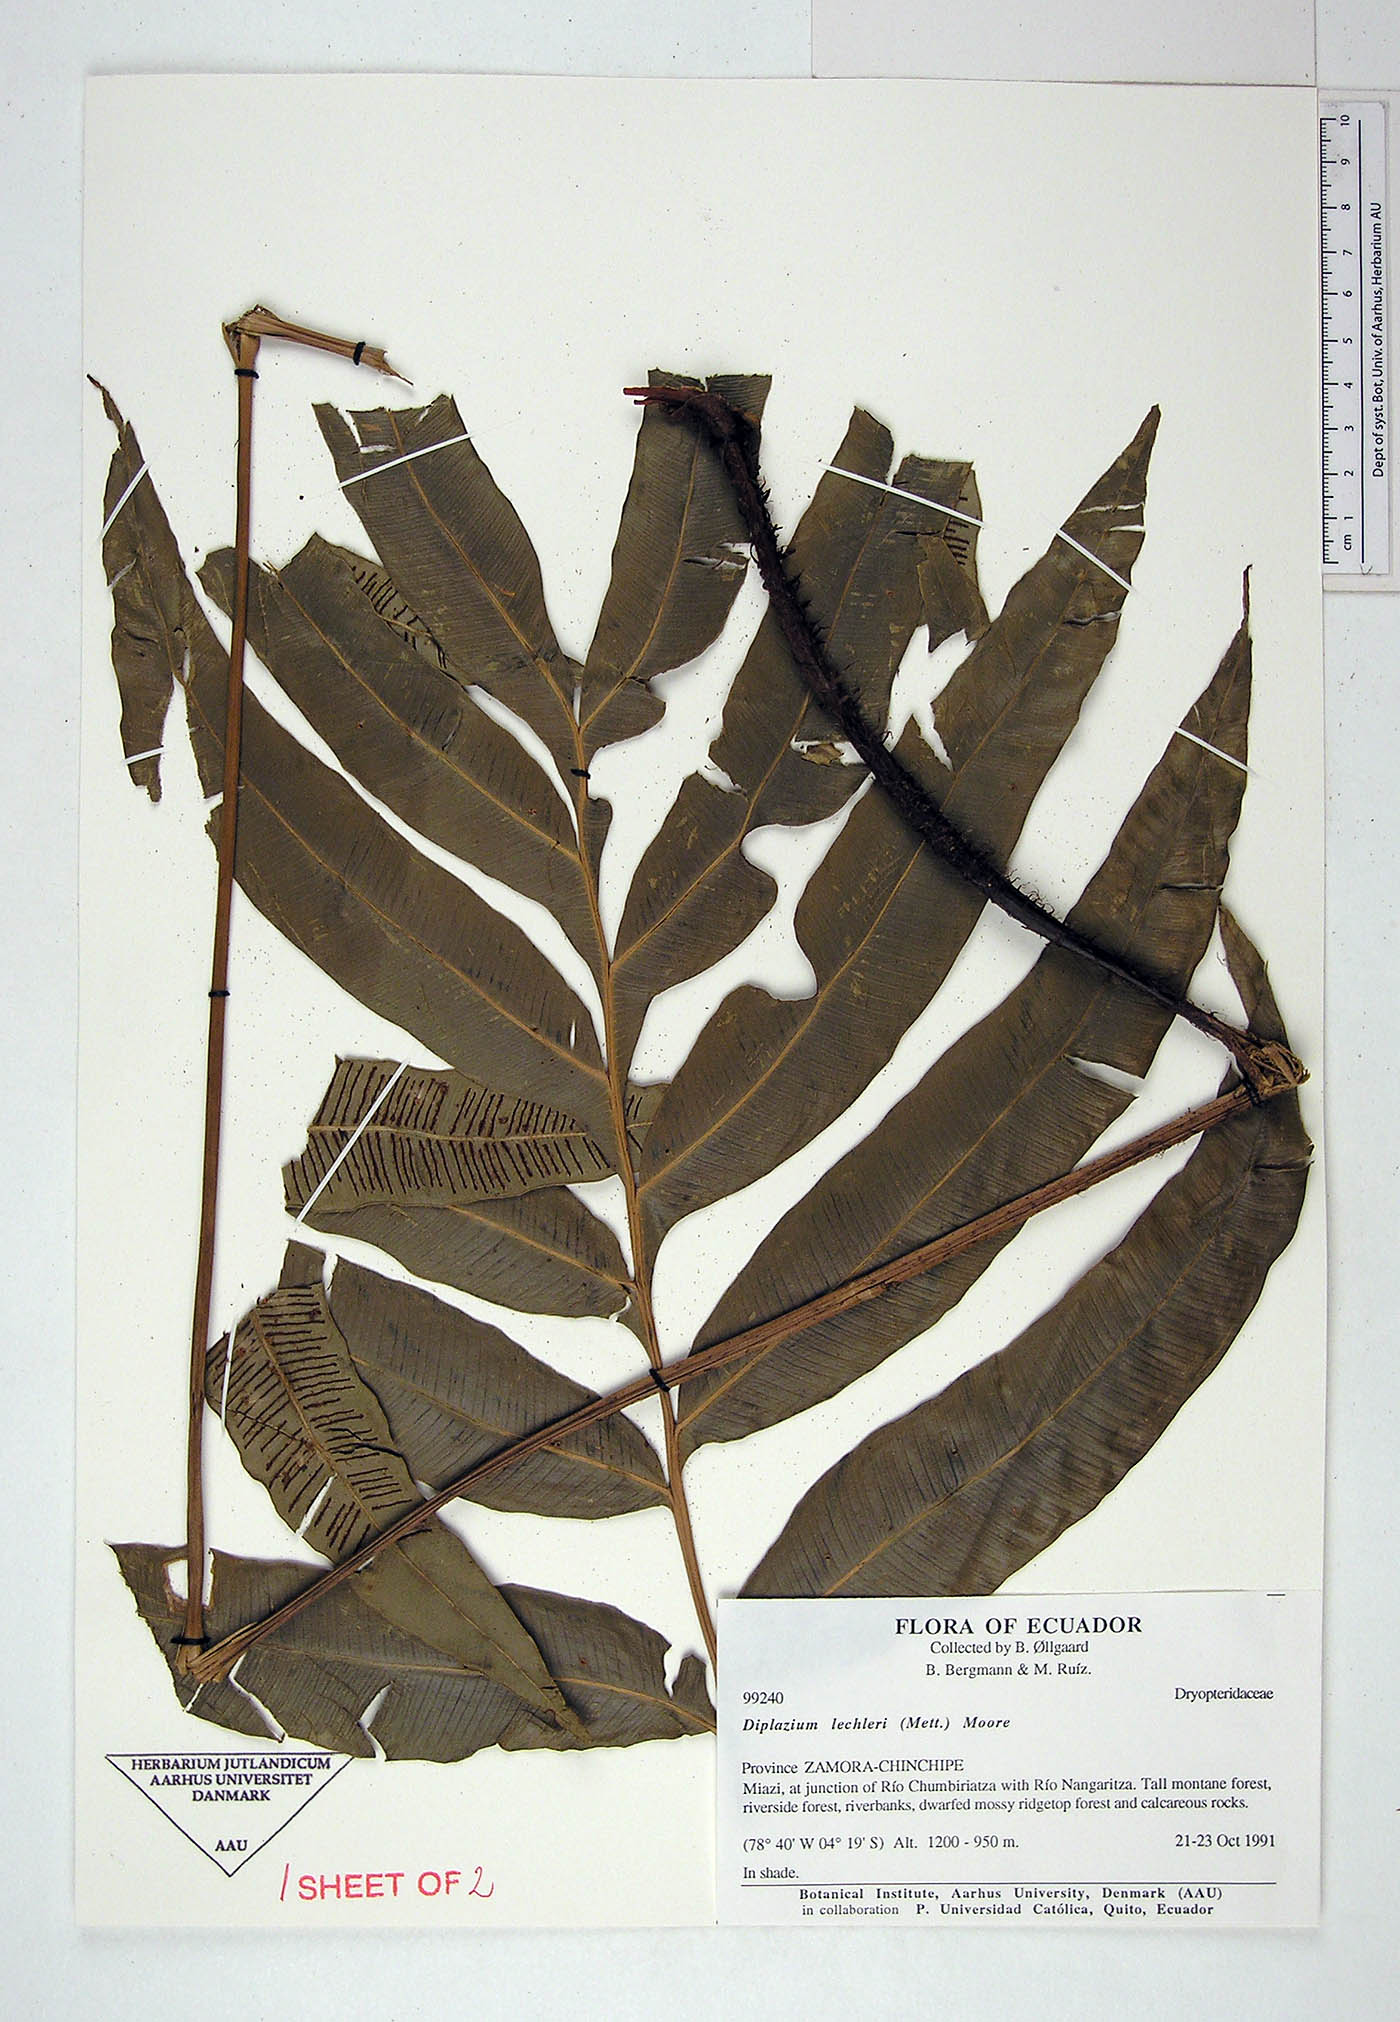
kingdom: Plantae
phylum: Tracheophyta
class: Polypodiopsida
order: Polypodiales
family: Desmophlebiaceae
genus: Desmophlebium
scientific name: Desmophlebium lechleri
